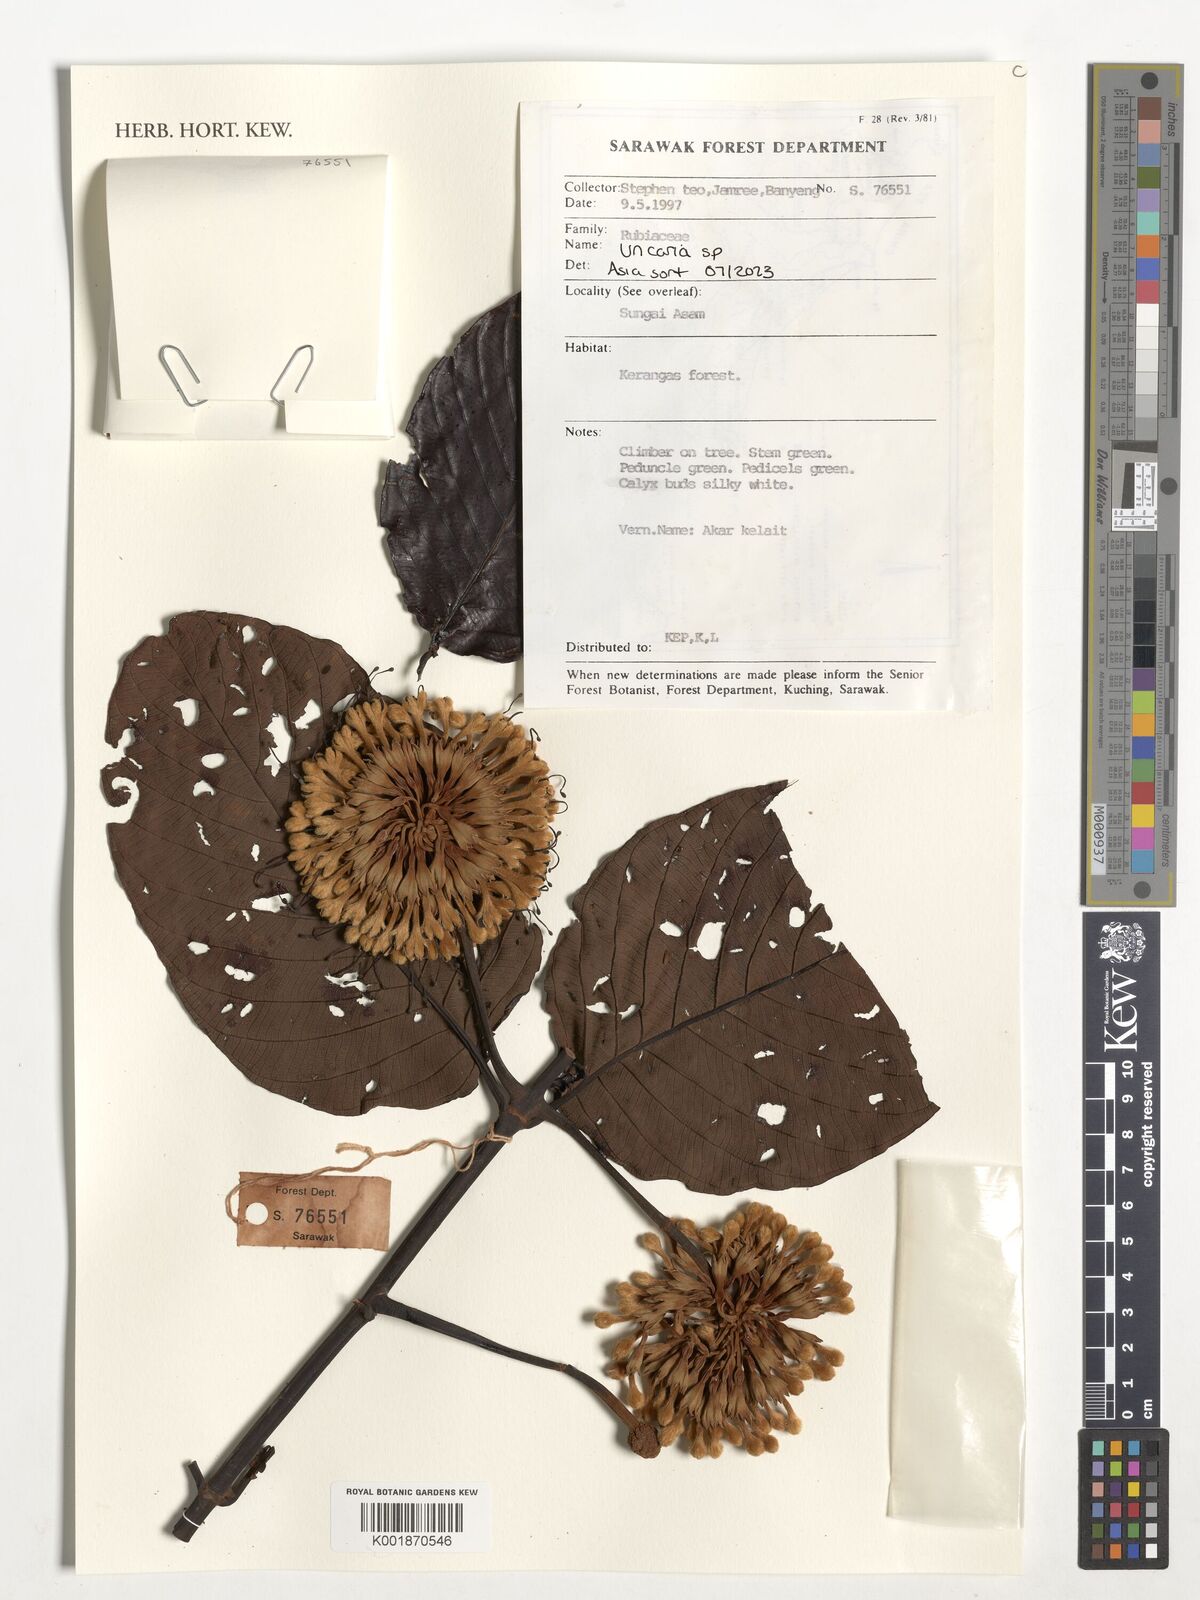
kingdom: Plantae
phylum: Tracheophyta
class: Magnoliopsida
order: Gentianales
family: Rubiaceae
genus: Uncaria
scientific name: Uncaria
